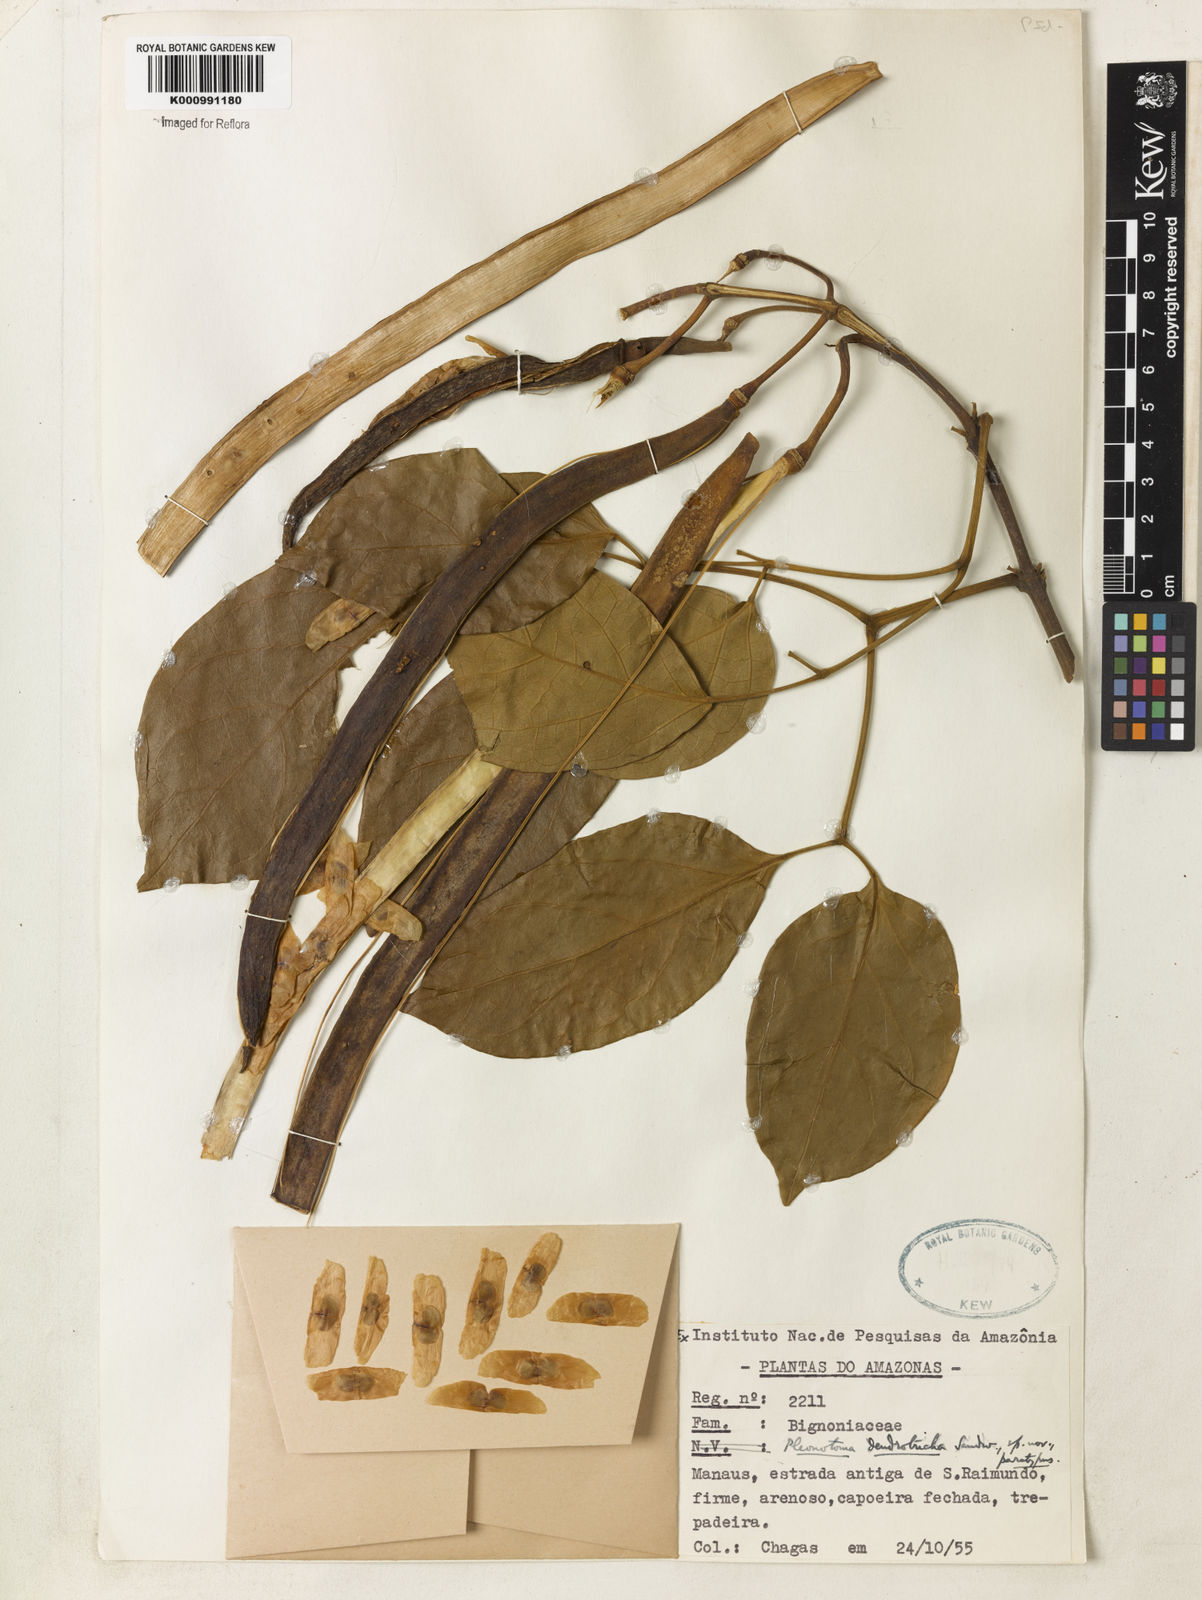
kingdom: Plantae
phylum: Tracheophyta
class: Magnoliopsida
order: Lamiales
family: Bignoniaceae
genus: Pleonotoma
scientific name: Pleonotoma dendrotricha
